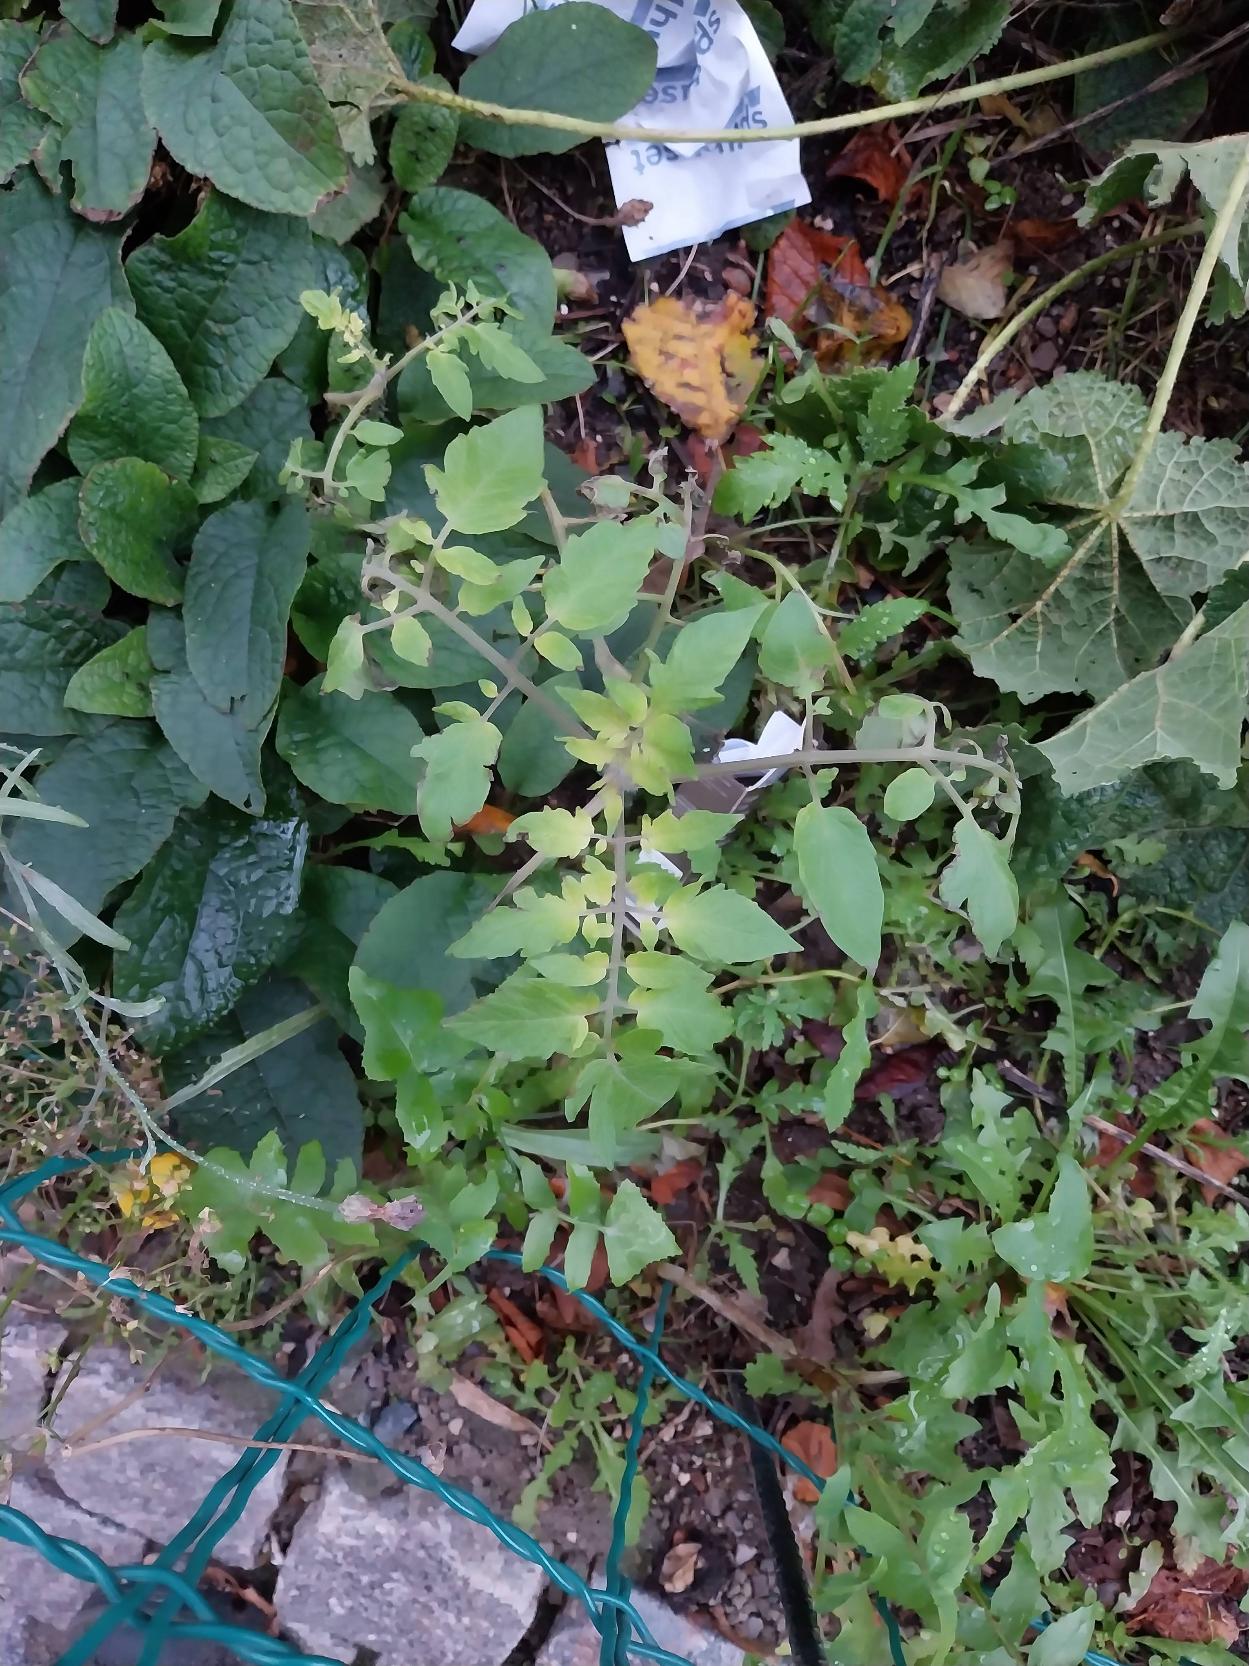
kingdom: Plantae
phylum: Tracheophyta
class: Magnoliopsida
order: Solanales
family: Solanaceae
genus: Solanum
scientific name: Solanum lycopersicum
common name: Tomat
